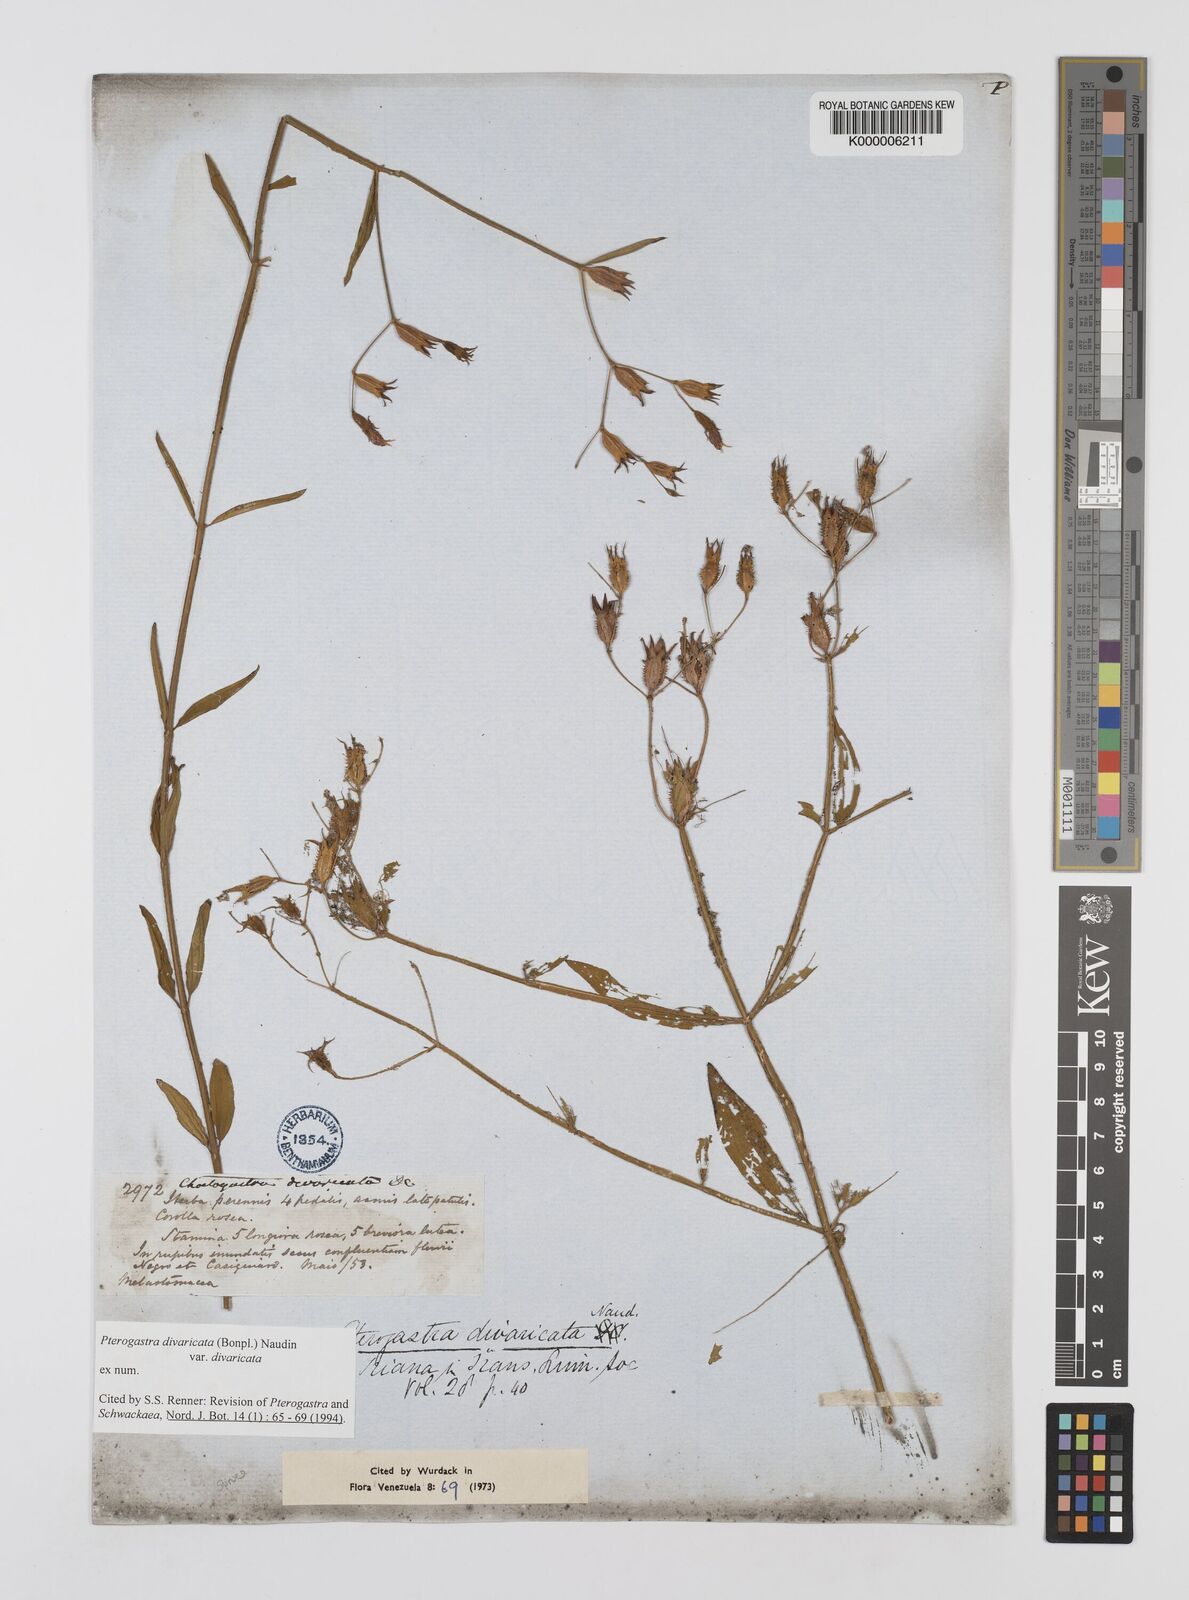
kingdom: Plantae
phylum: Tracheophyta
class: Magnoliopsida
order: Myrtales
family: Melastomataceae
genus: Pterogastra
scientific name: Pterogastra
